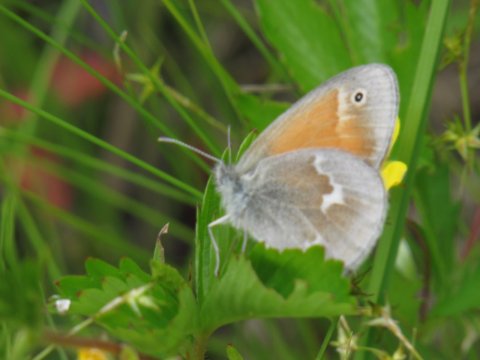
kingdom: Animalia
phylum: Arthropoda
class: Insecta
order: Lepidoptera
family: Nymphalidae
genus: Coenonympha
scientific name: Coenonympha tullia
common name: Large Heath
